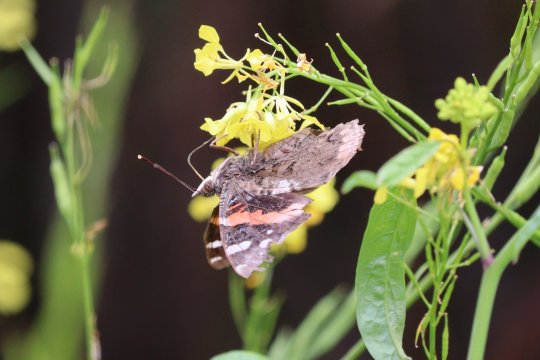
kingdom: Animalia
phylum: Arthropoda
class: Insecta
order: Lepidoptera
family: Nymphalidae
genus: Vanessa
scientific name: Vanessa atalanta
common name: Red Admiral
